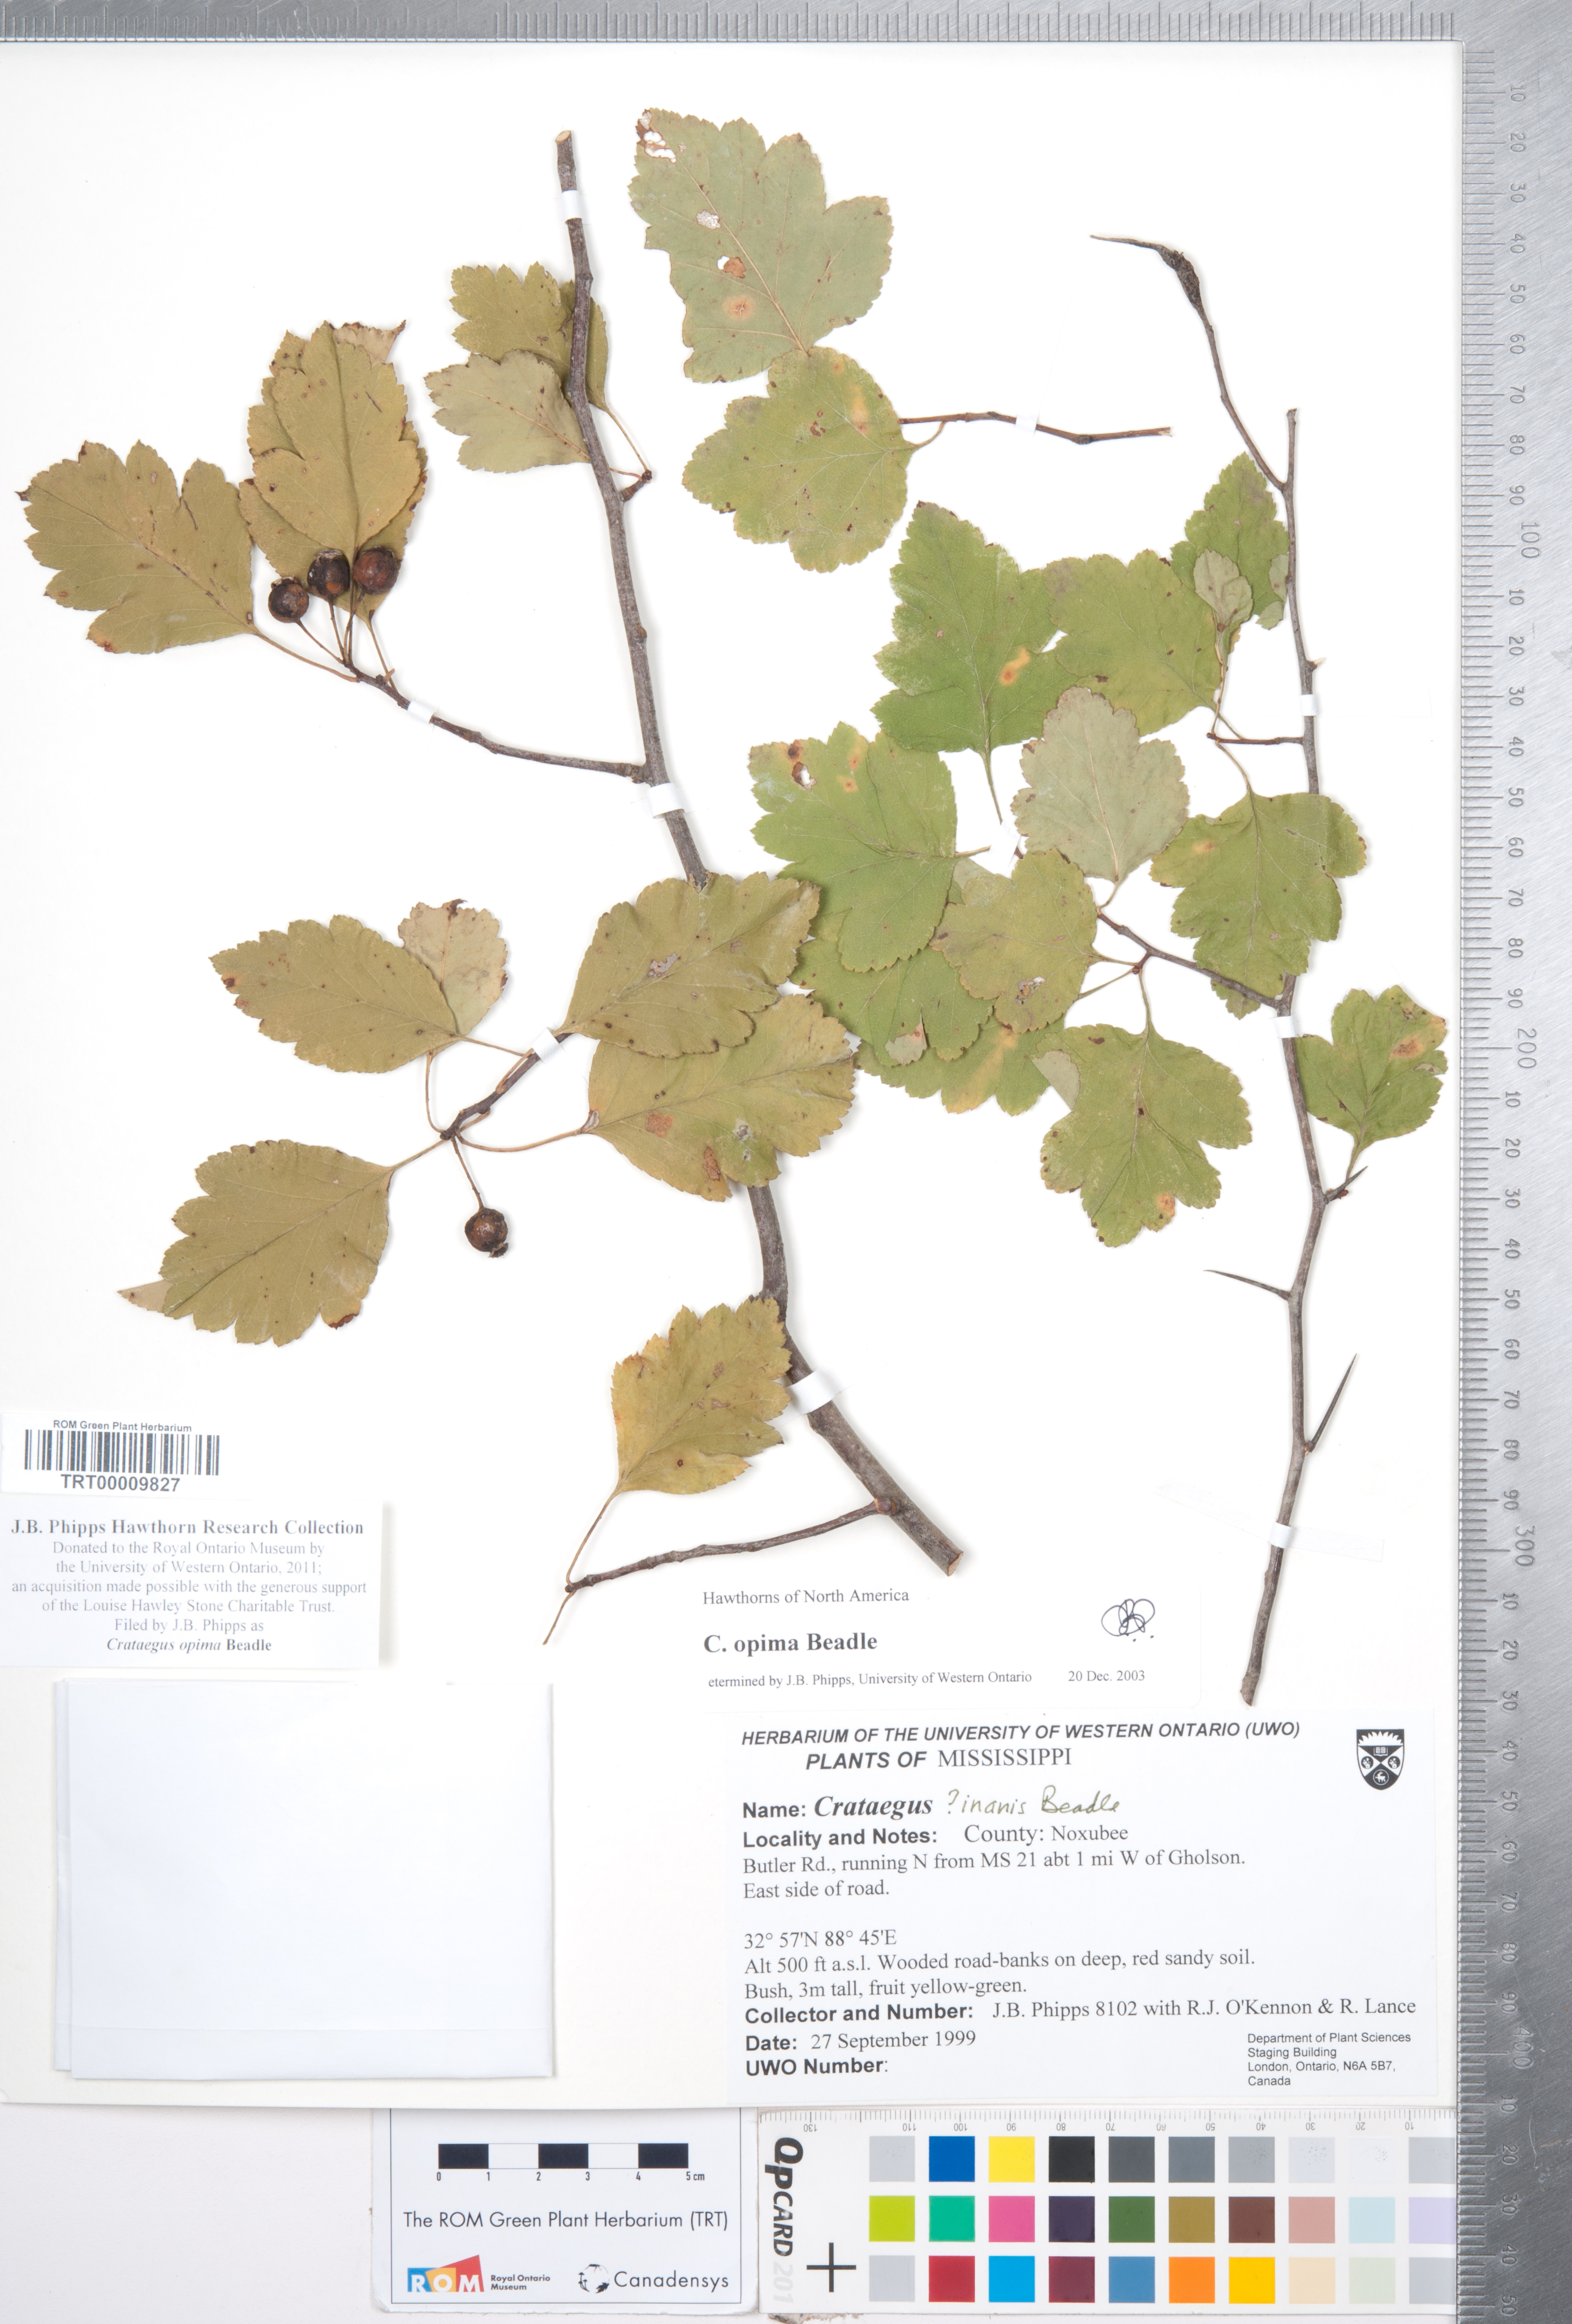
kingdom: Plantae
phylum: Tracheophyta
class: Magnoliopsida
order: Rosales
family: Rosaceae
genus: Crataegus
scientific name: Crataegus pulcherrima
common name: Beautiful hawthorn
